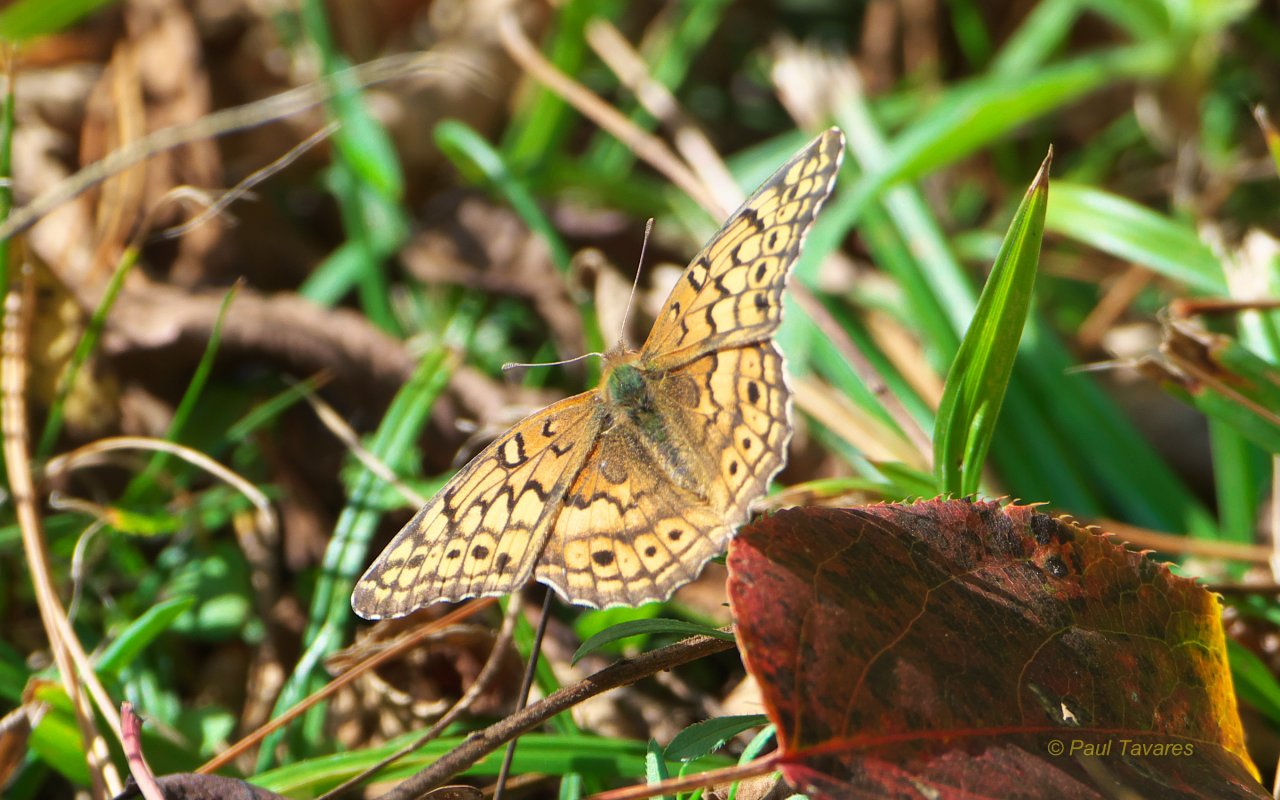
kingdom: Animalia
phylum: Arthropoda
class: Insecta
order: Lepidoptera
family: Nymphalidae
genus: Euptoieta
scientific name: Euptoieta claudia
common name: Variegated Fritillary
